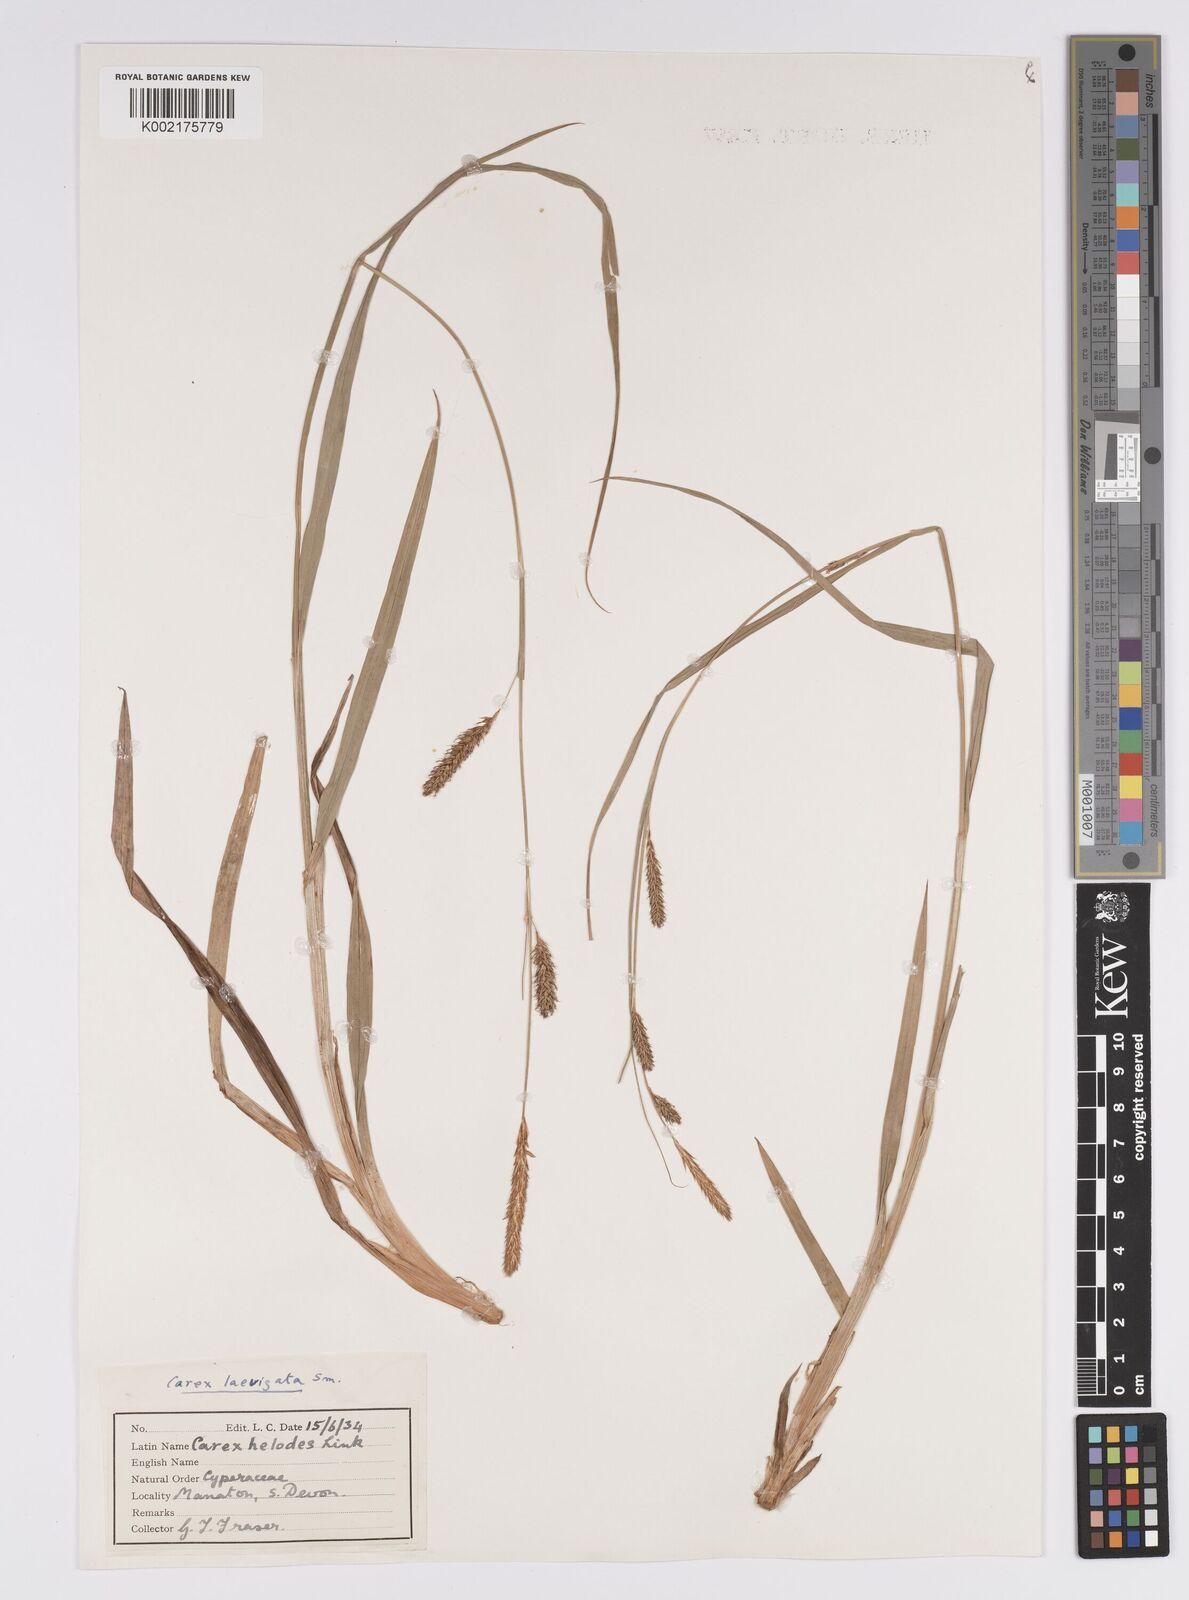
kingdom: Plantae
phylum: Tracheophyta
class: Liliopsida
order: Poales
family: Cyperaceae
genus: Carex
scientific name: Carex laevigata
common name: Smooth-stalked sedge
